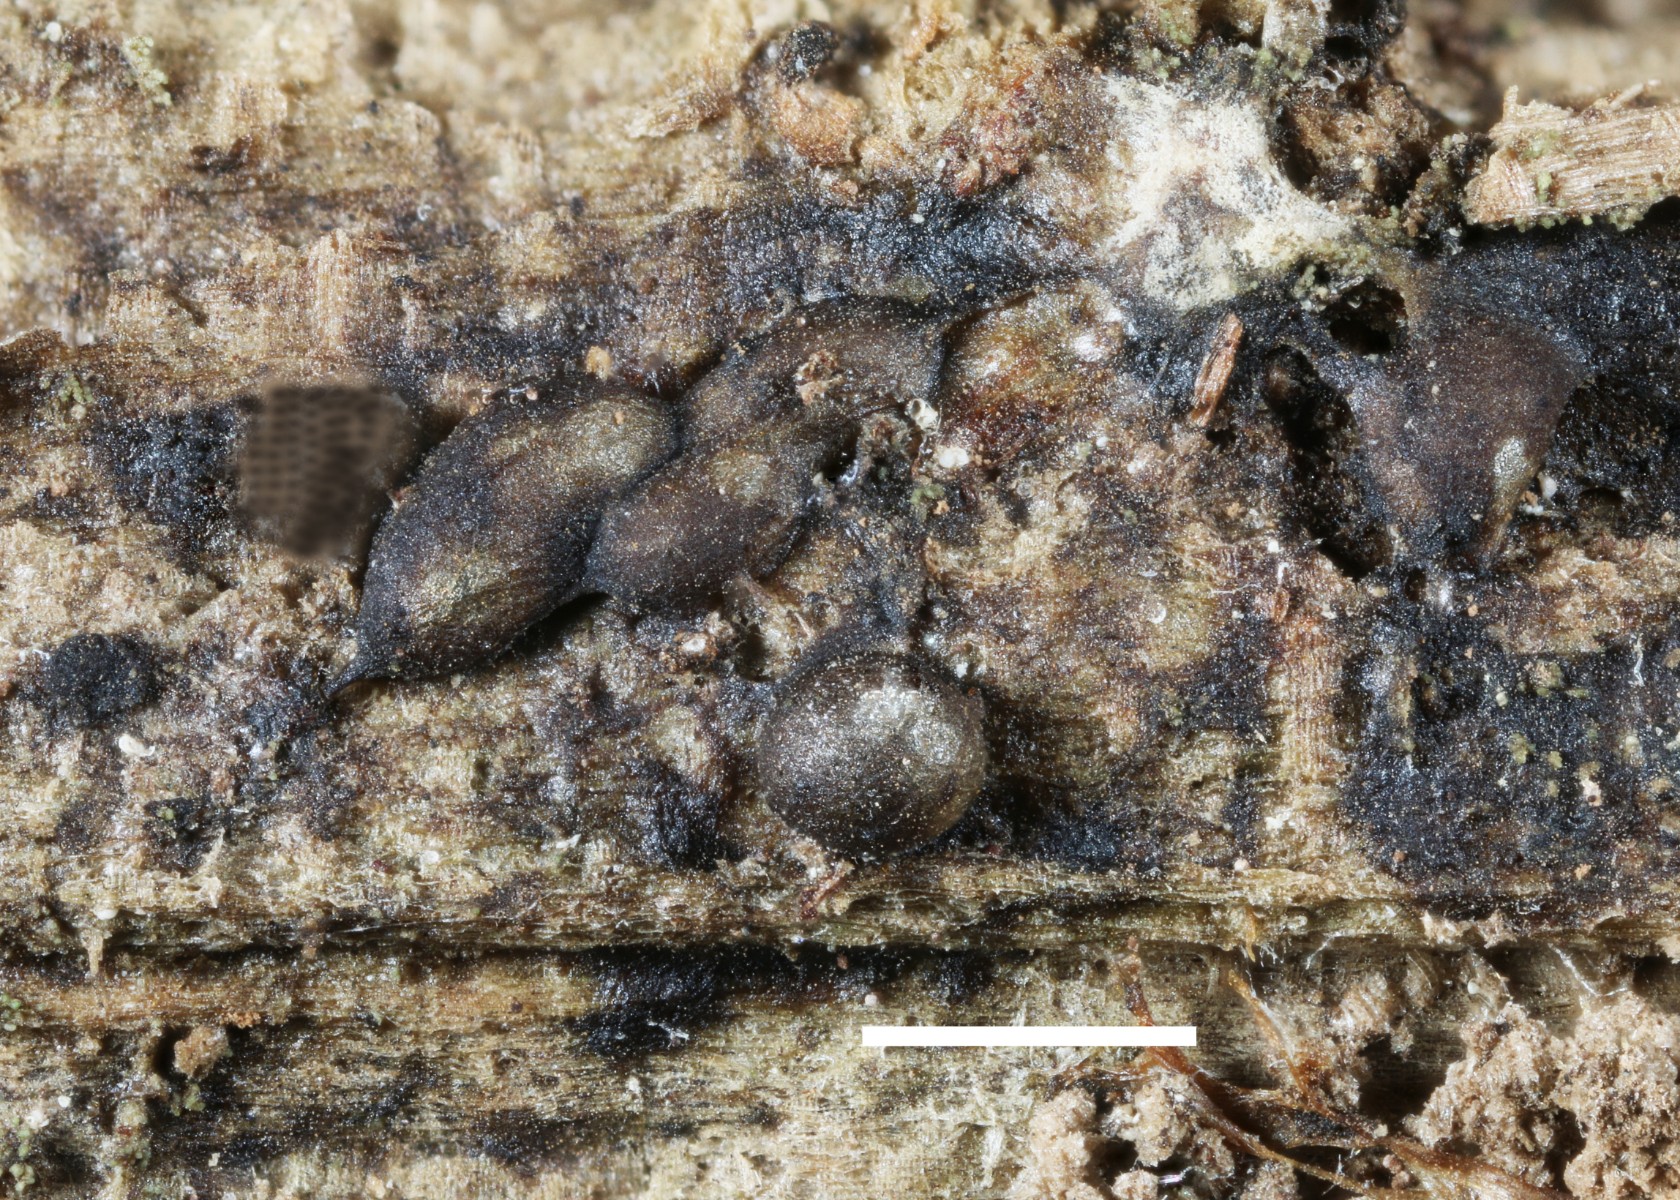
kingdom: Protozoa
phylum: Mycetozoa
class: Myxomycetes
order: Stemonitidales
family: Stemonitidaceae
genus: Colloderma
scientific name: Colloderma oculatum
